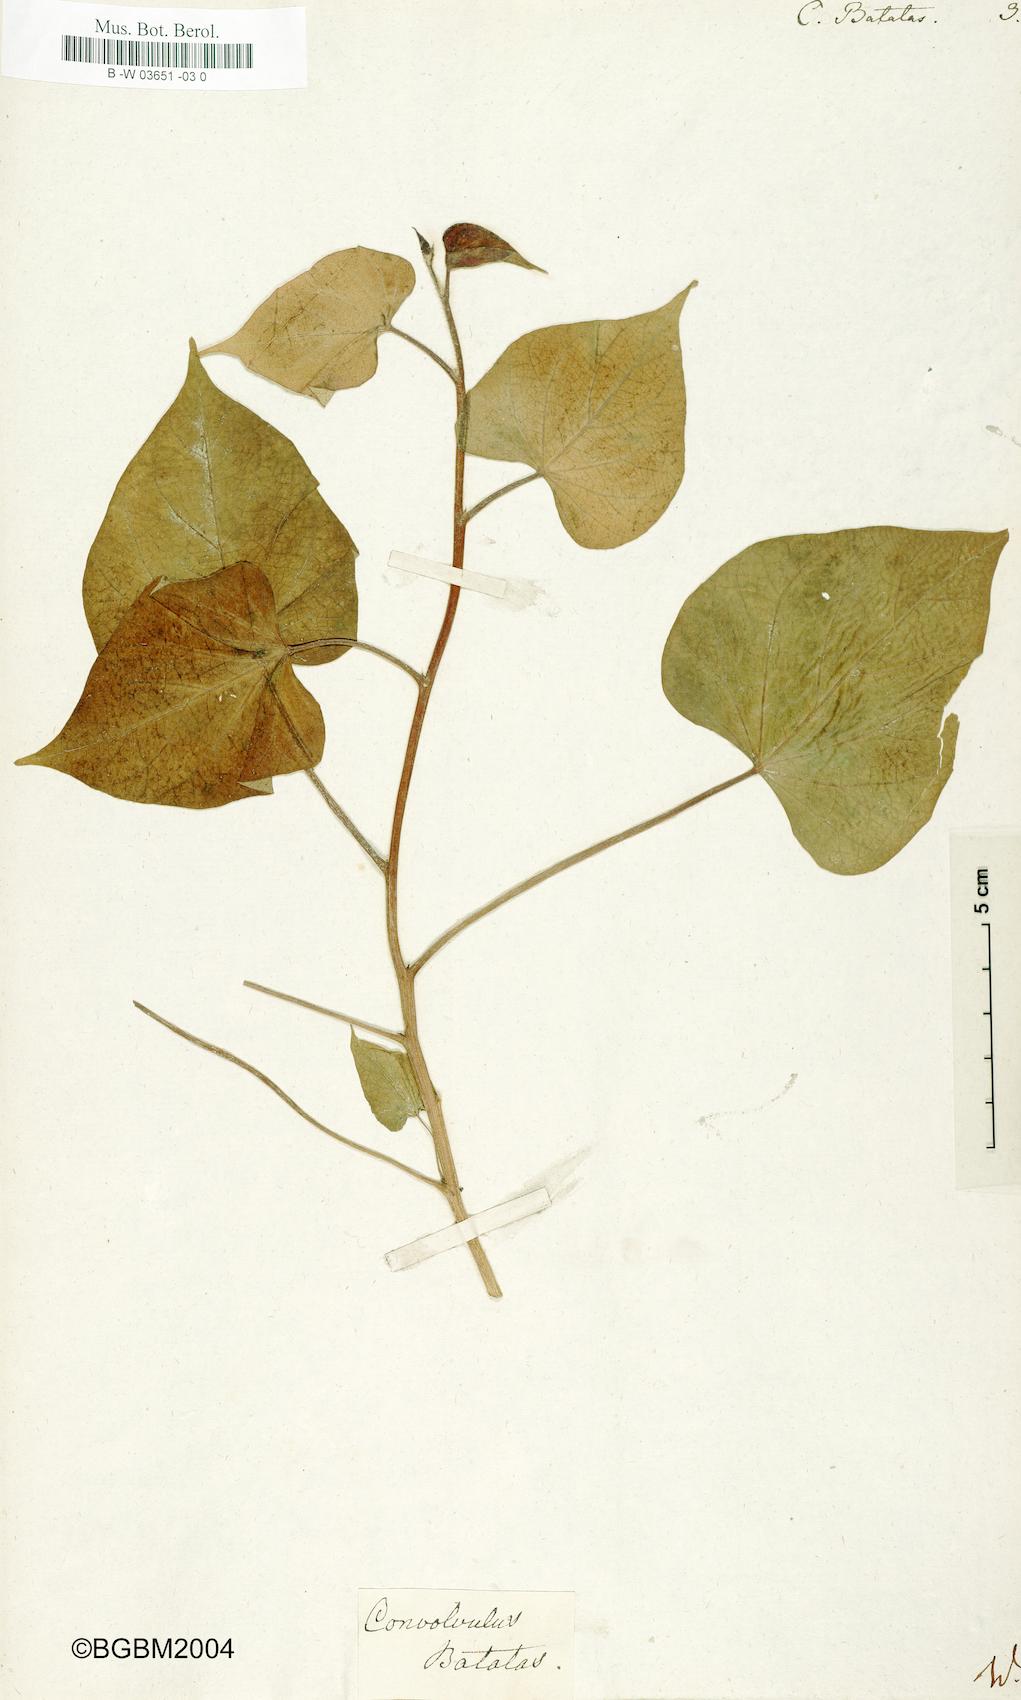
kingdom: Plantae
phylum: Tracheophyta
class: Magnoliopsida
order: Solanales
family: Convolvulaceae
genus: Ipomoea
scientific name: Ipomoea batatas
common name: Sweet-potato
